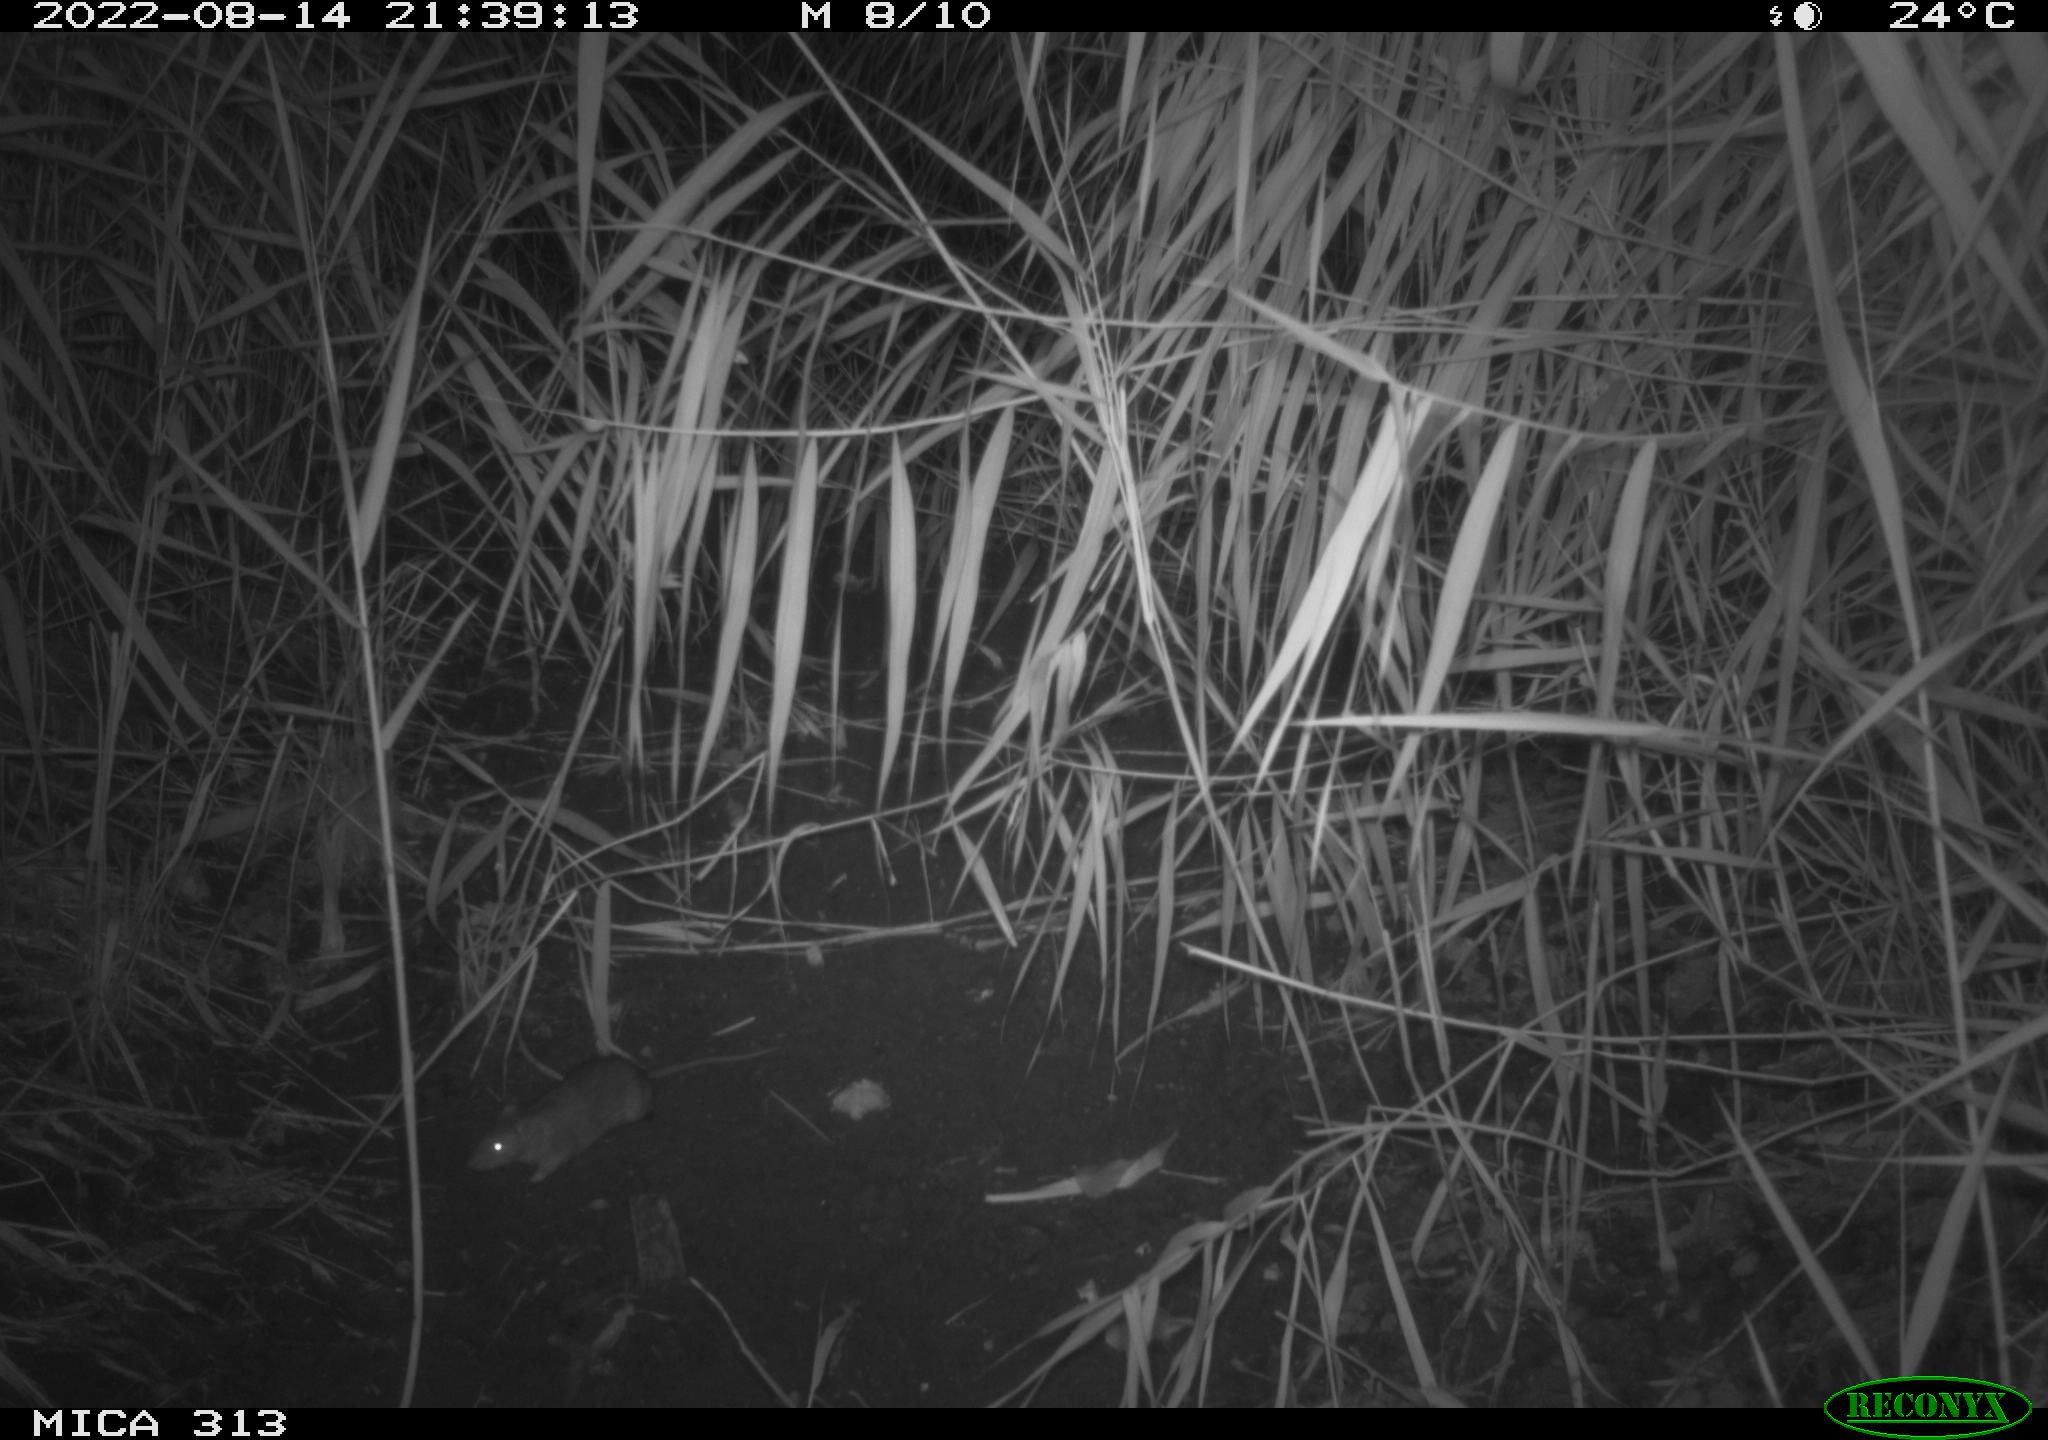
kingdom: Animalia
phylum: Chordata
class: Mammalia
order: Rodentia
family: Muridae
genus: Rattus
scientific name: Rattus norvegicus
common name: Brown rat
